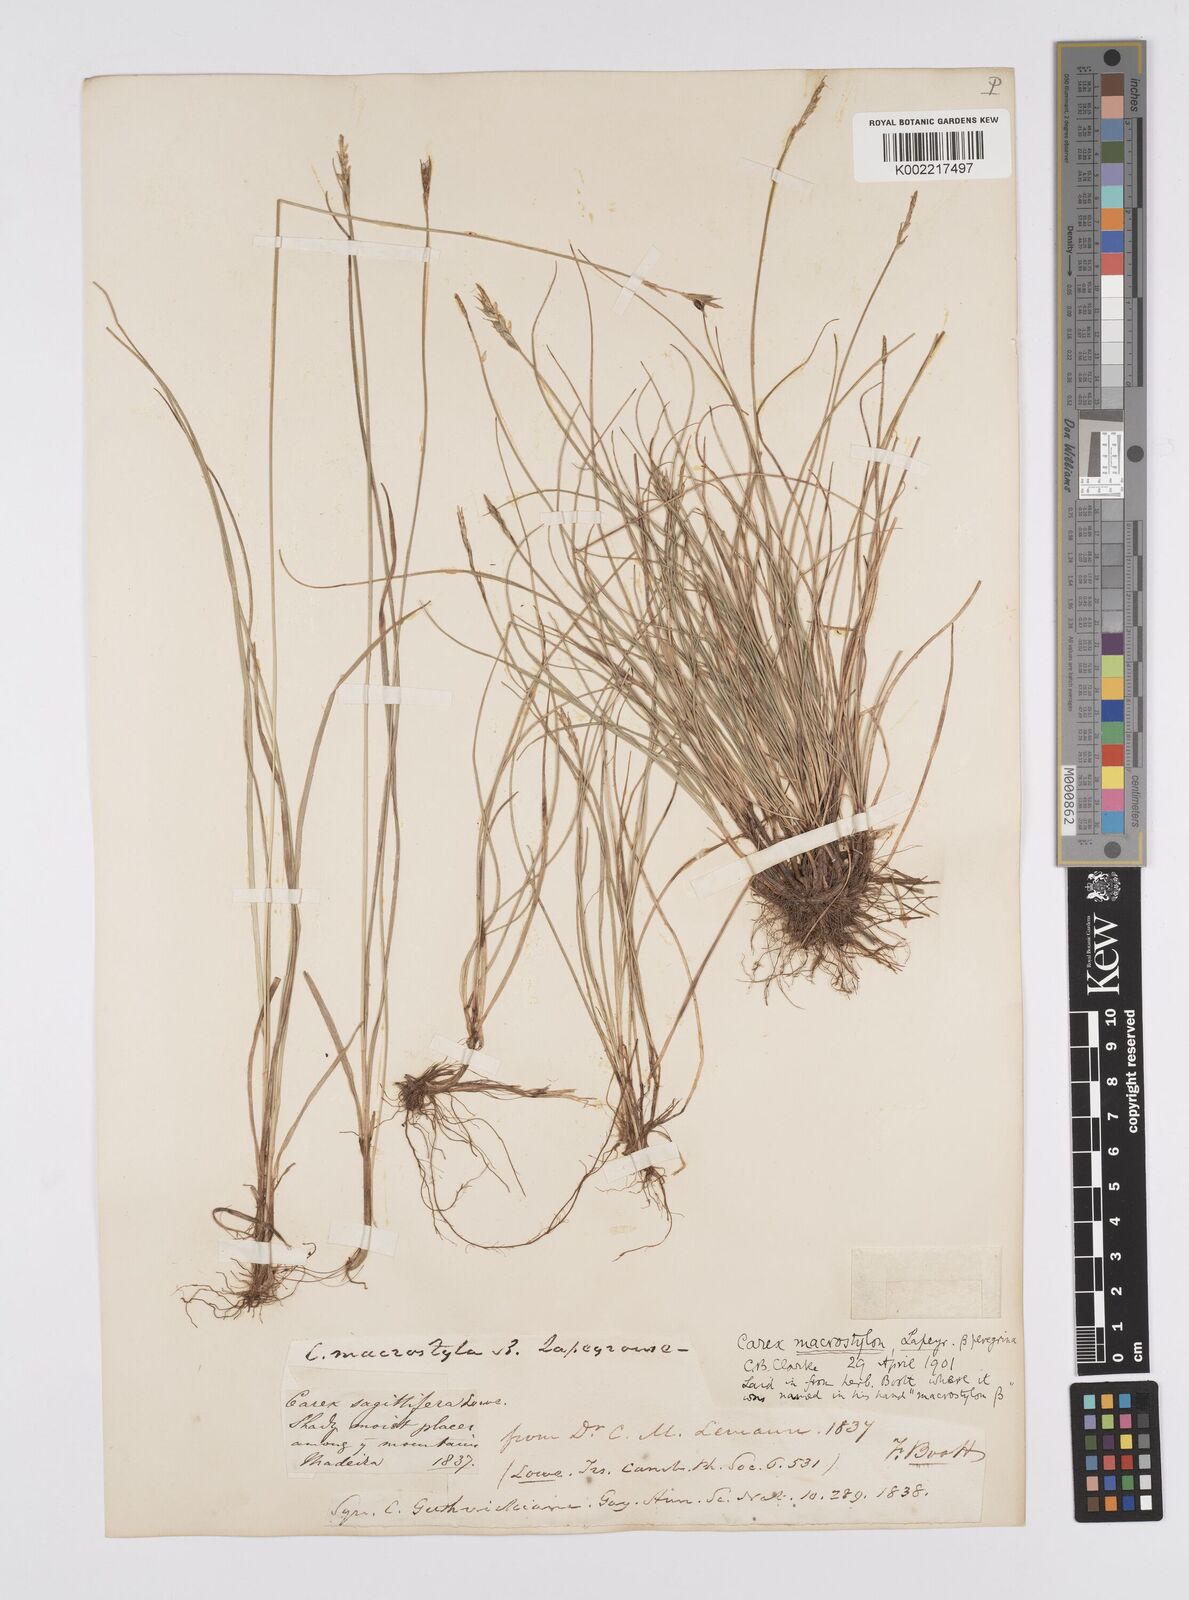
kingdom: Plantae
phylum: Tracheophyta
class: Liliopsida
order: Poales
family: Cyperaceae
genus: Carex
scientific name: Carex peregrina
